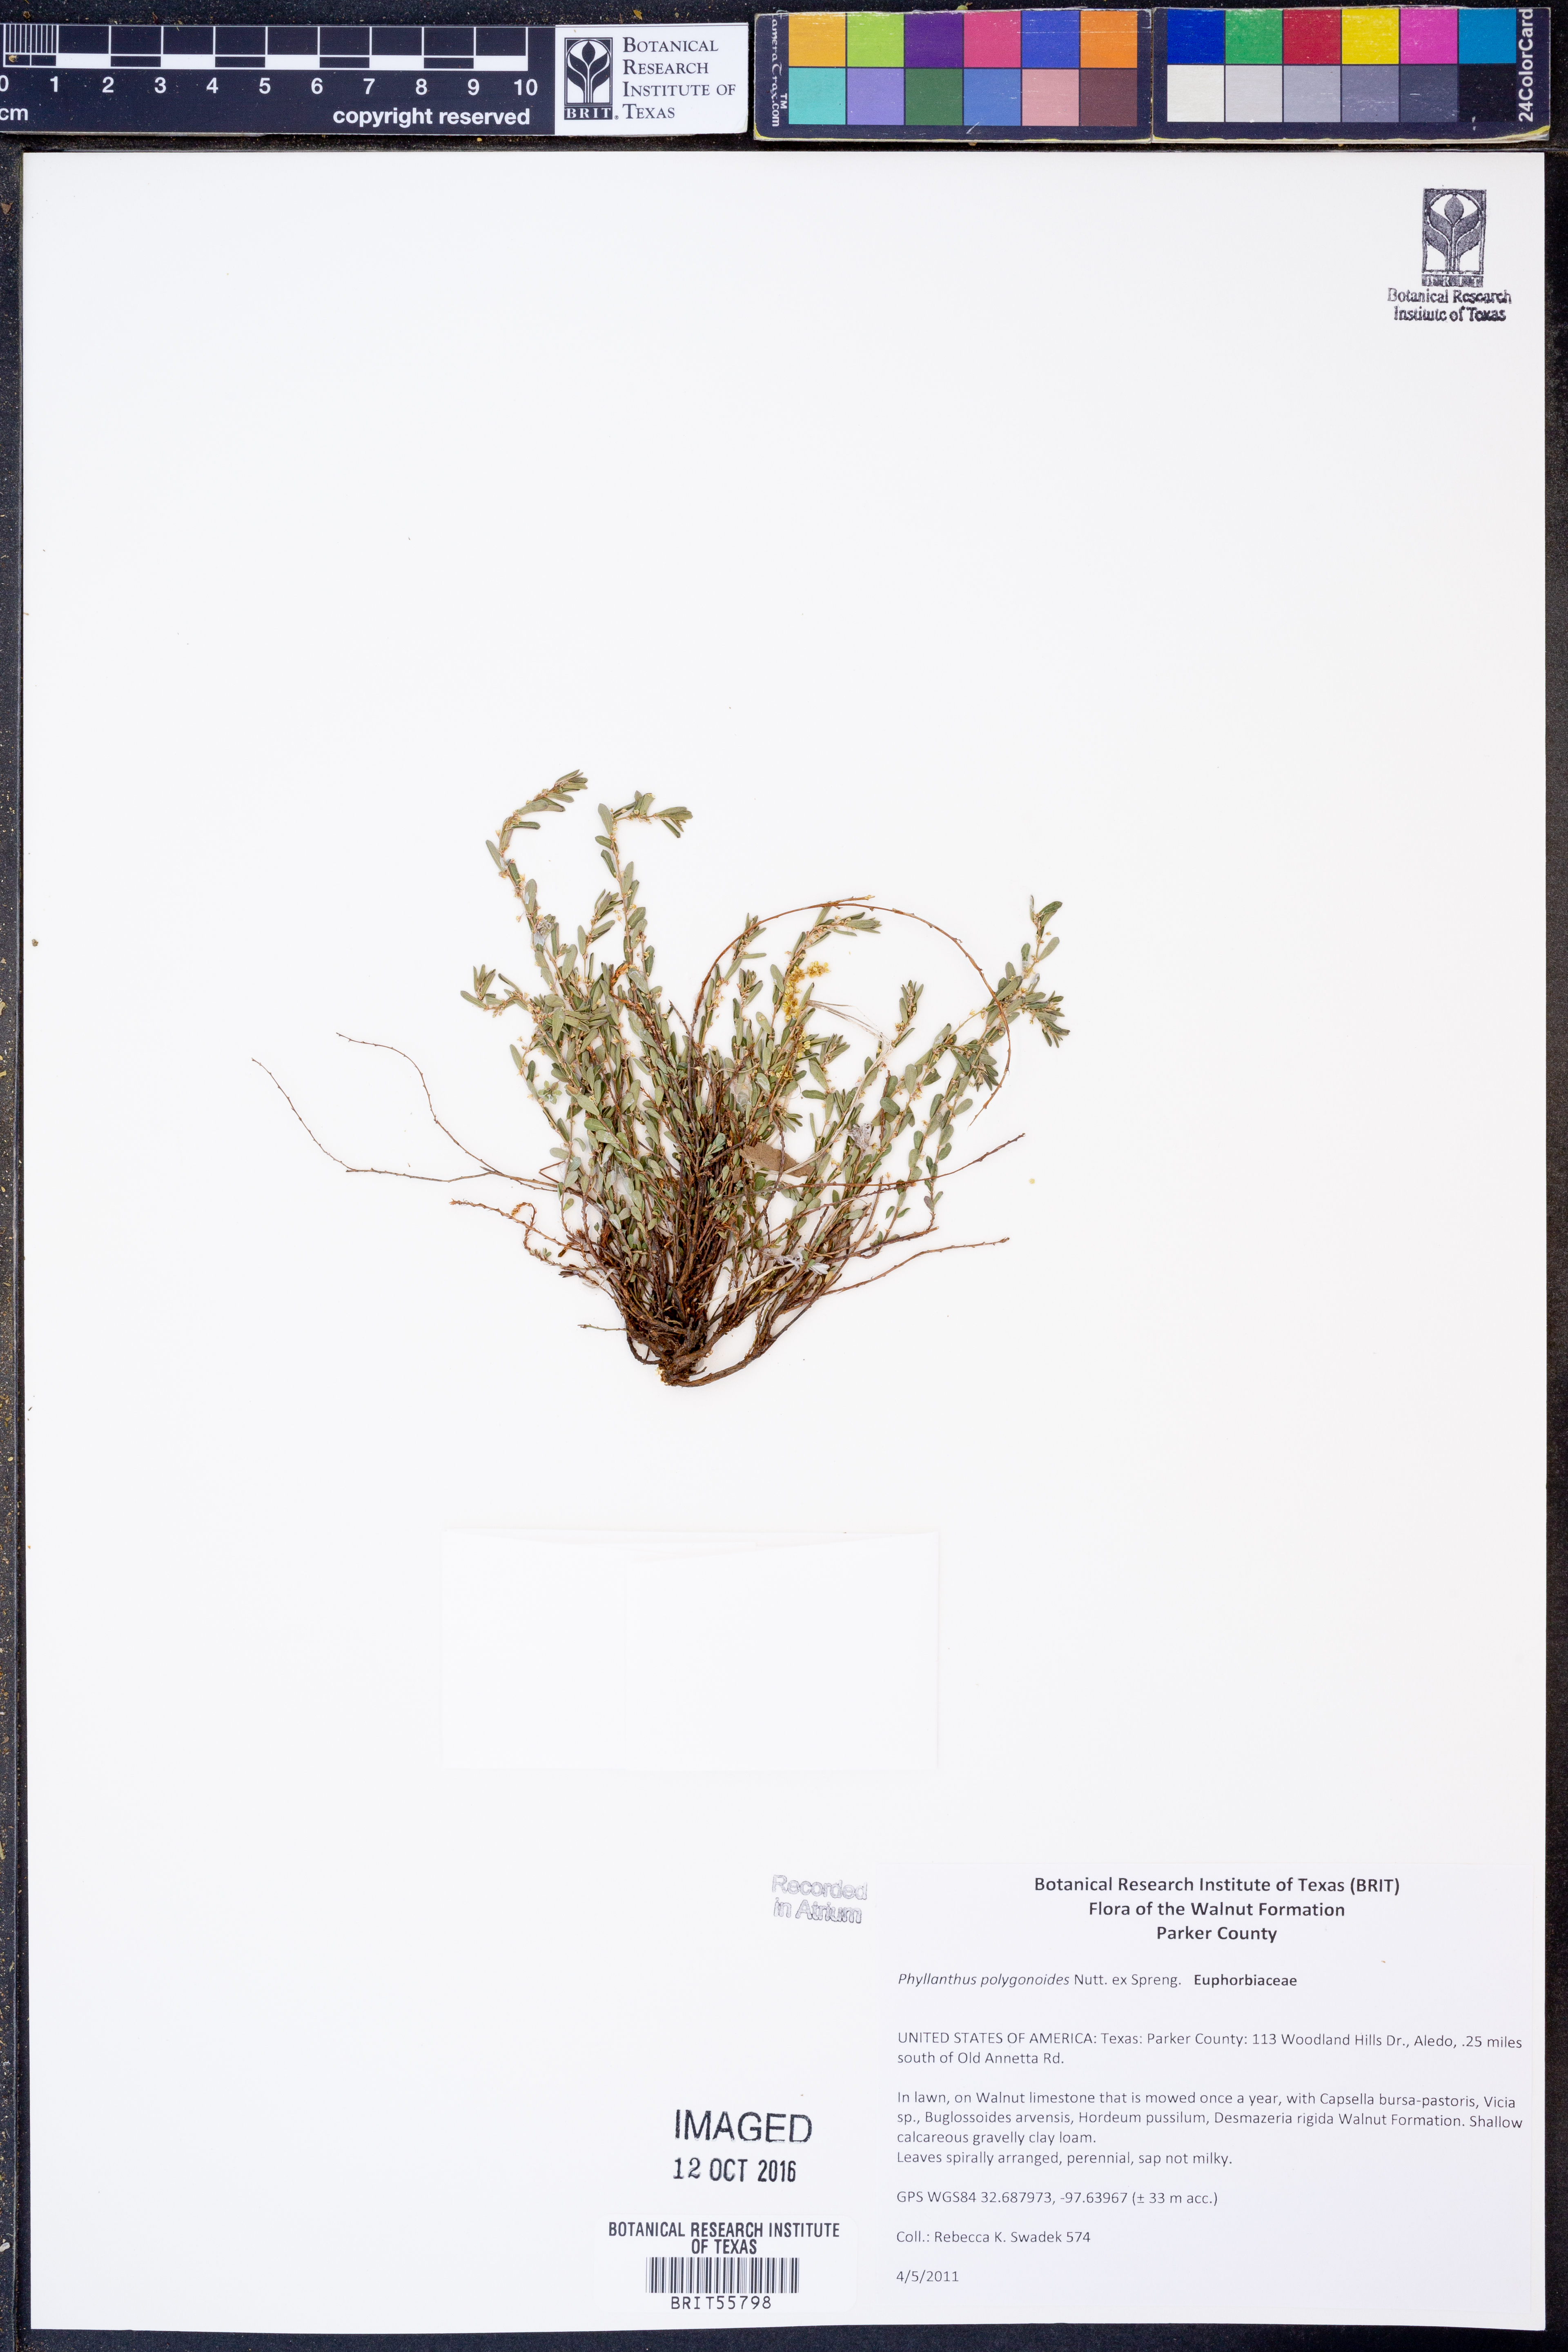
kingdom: Plantae
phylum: Tracheophyta
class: Magnoliopsida
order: Malpighiales
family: Phyllanthaceae
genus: Phyllanthus
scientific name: Phyllanthus polygonoides
